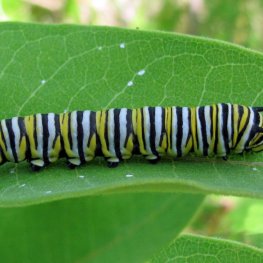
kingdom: Animalia
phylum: Arthropoda
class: Insecta
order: Lepidoptera
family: Nymphalidae
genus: Danaus
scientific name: Danaus plexippus
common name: Monarch
